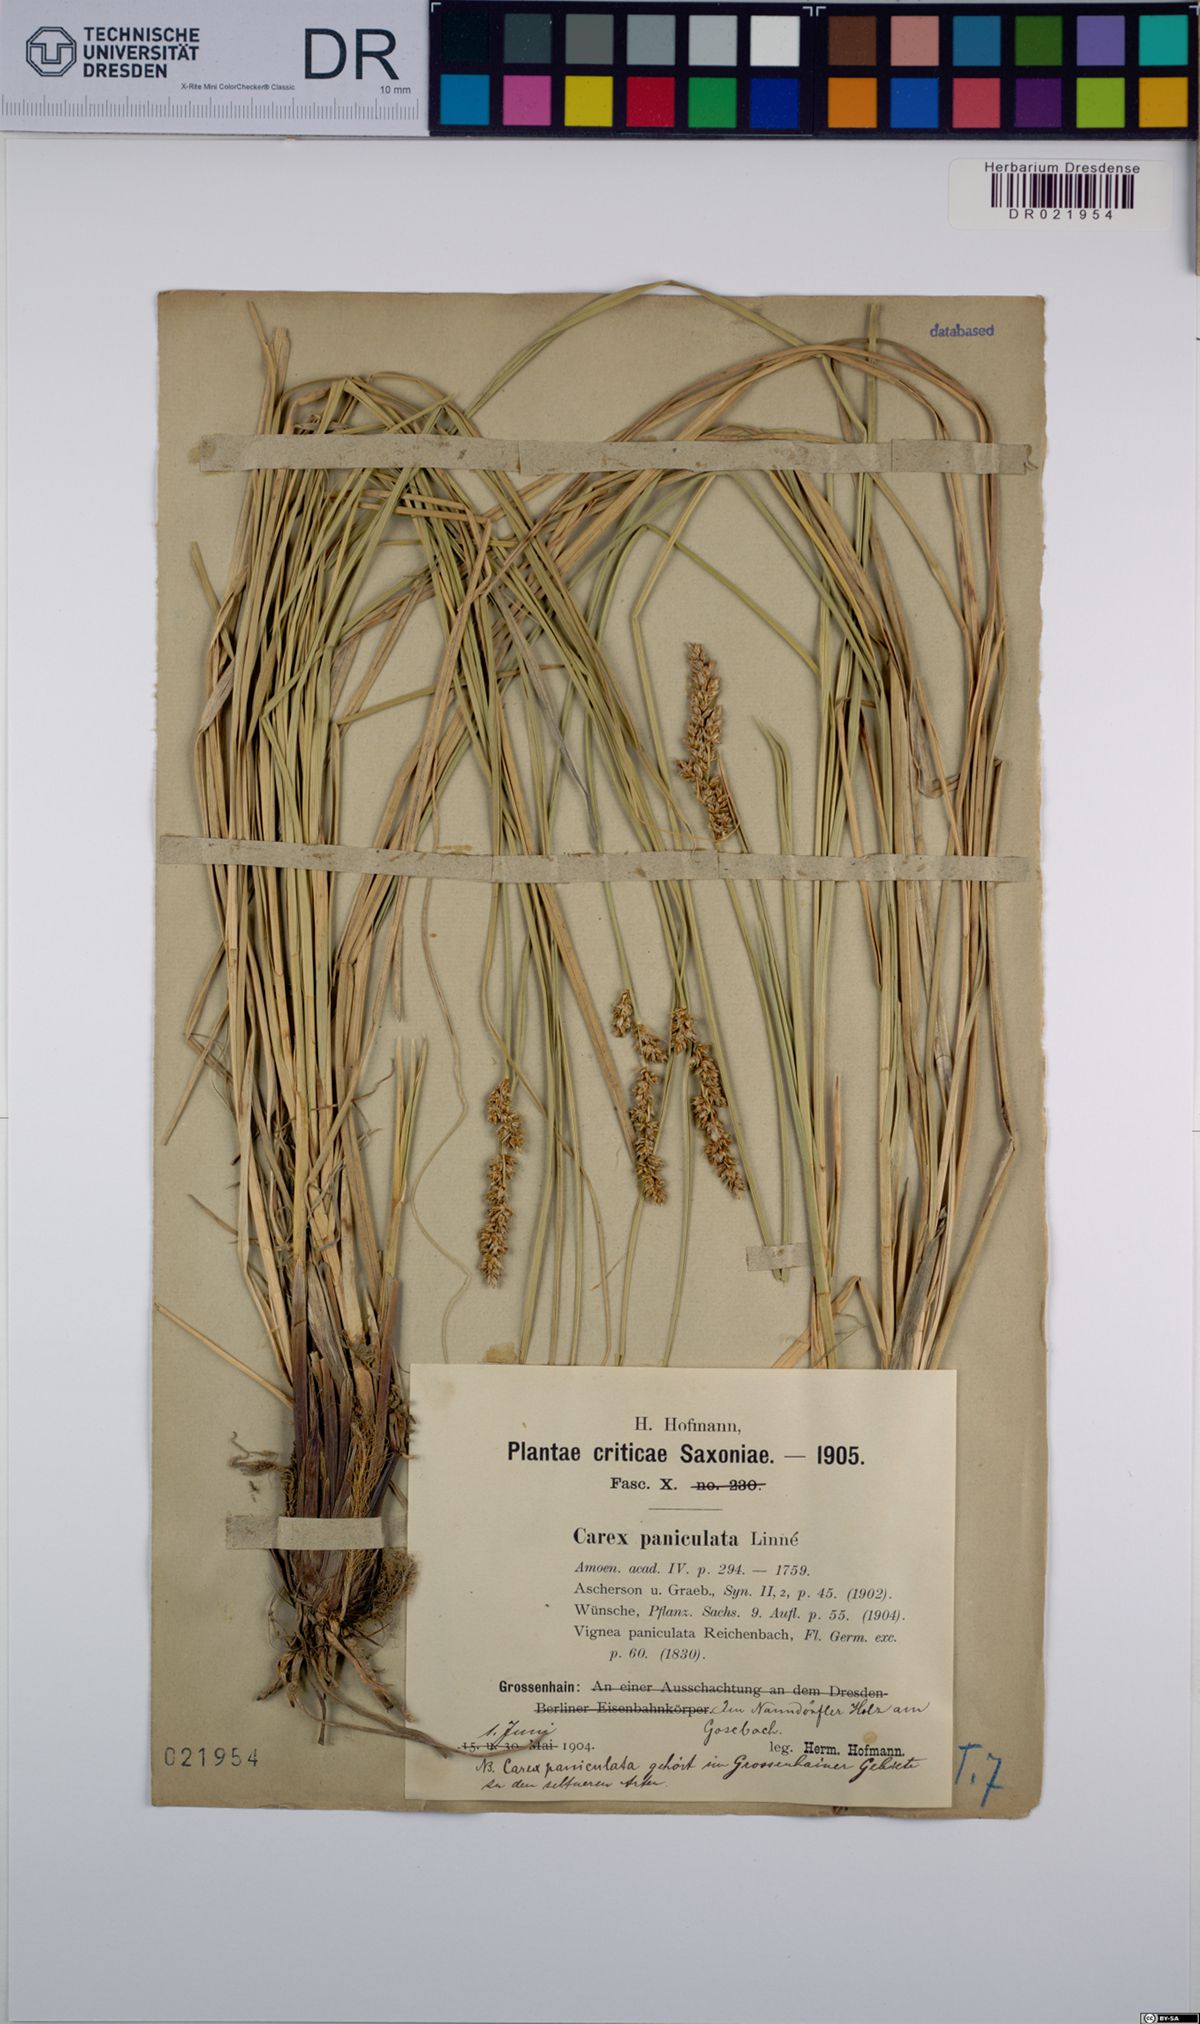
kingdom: Plantae
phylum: Tracheophyta
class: Liliopsida
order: Poales
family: Cyperaceae
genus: Carex
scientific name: Carex paniculata
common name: Greater tussock-sedge
